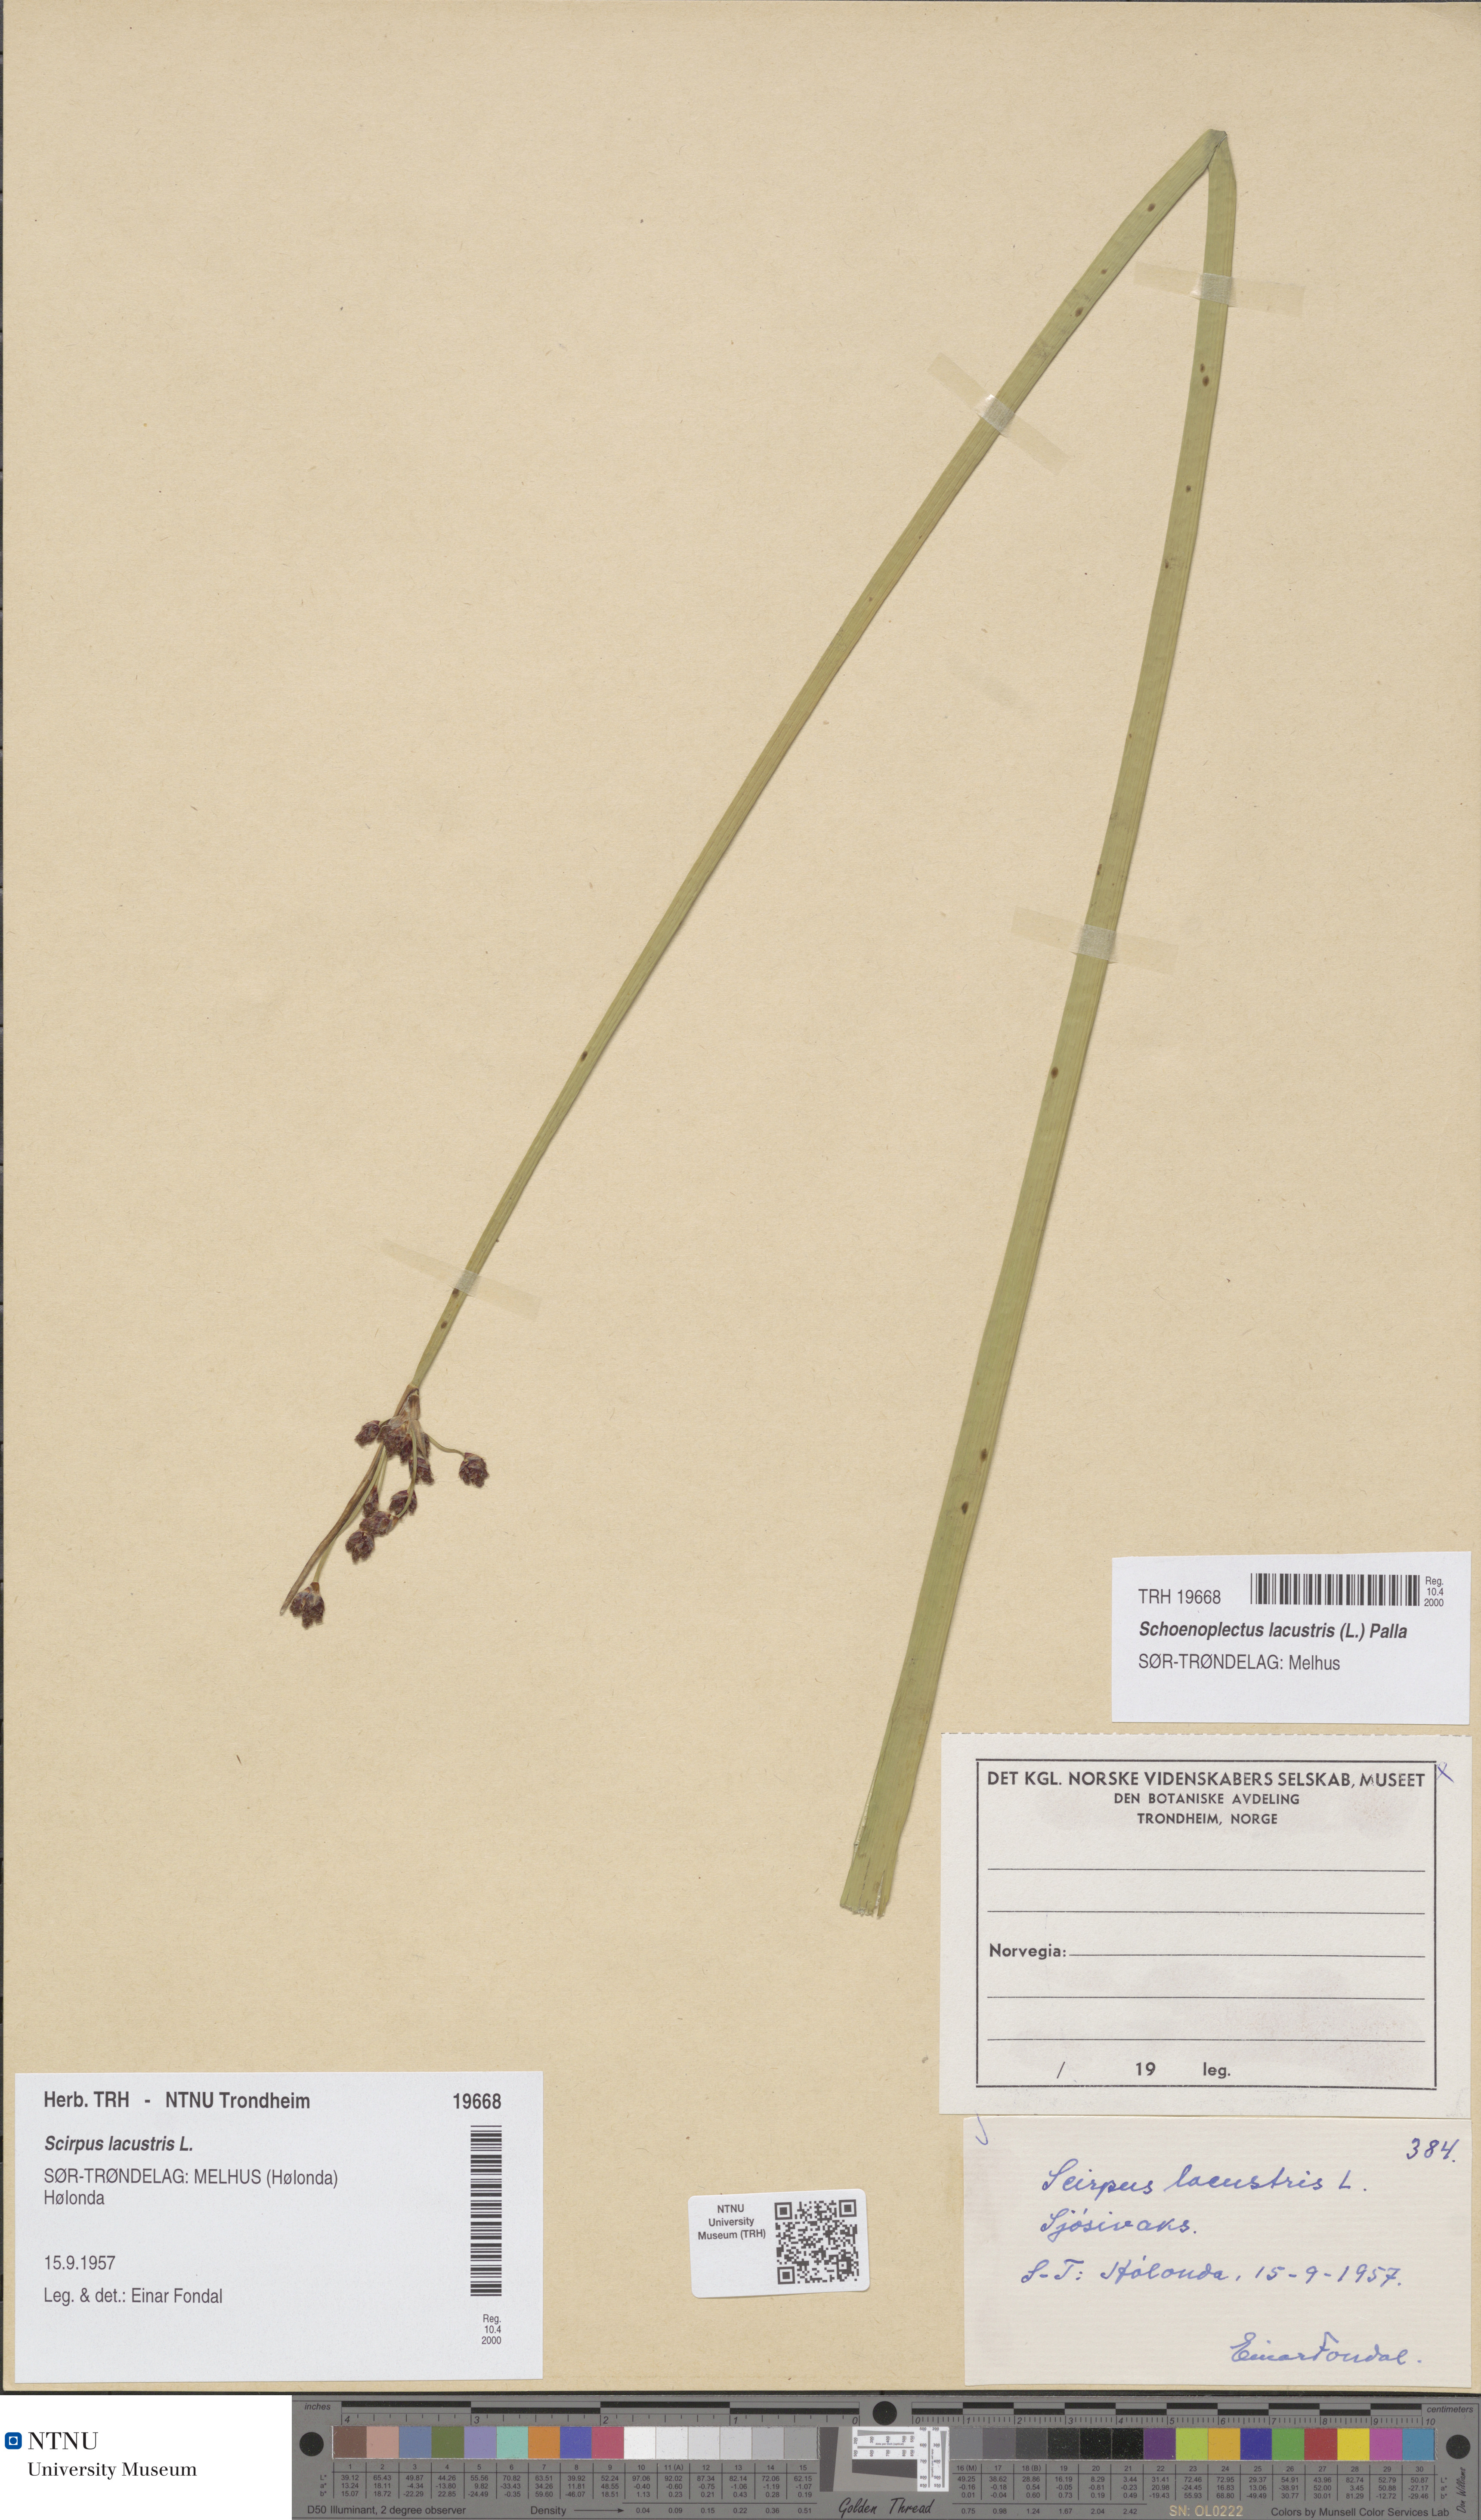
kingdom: Plantae
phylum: Tracheophyta
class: Liliopsida
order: Poales
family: Cyperaceae
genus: Schoenoplectus
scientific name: Schoenoplectus lacustris
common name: Common club-rush
